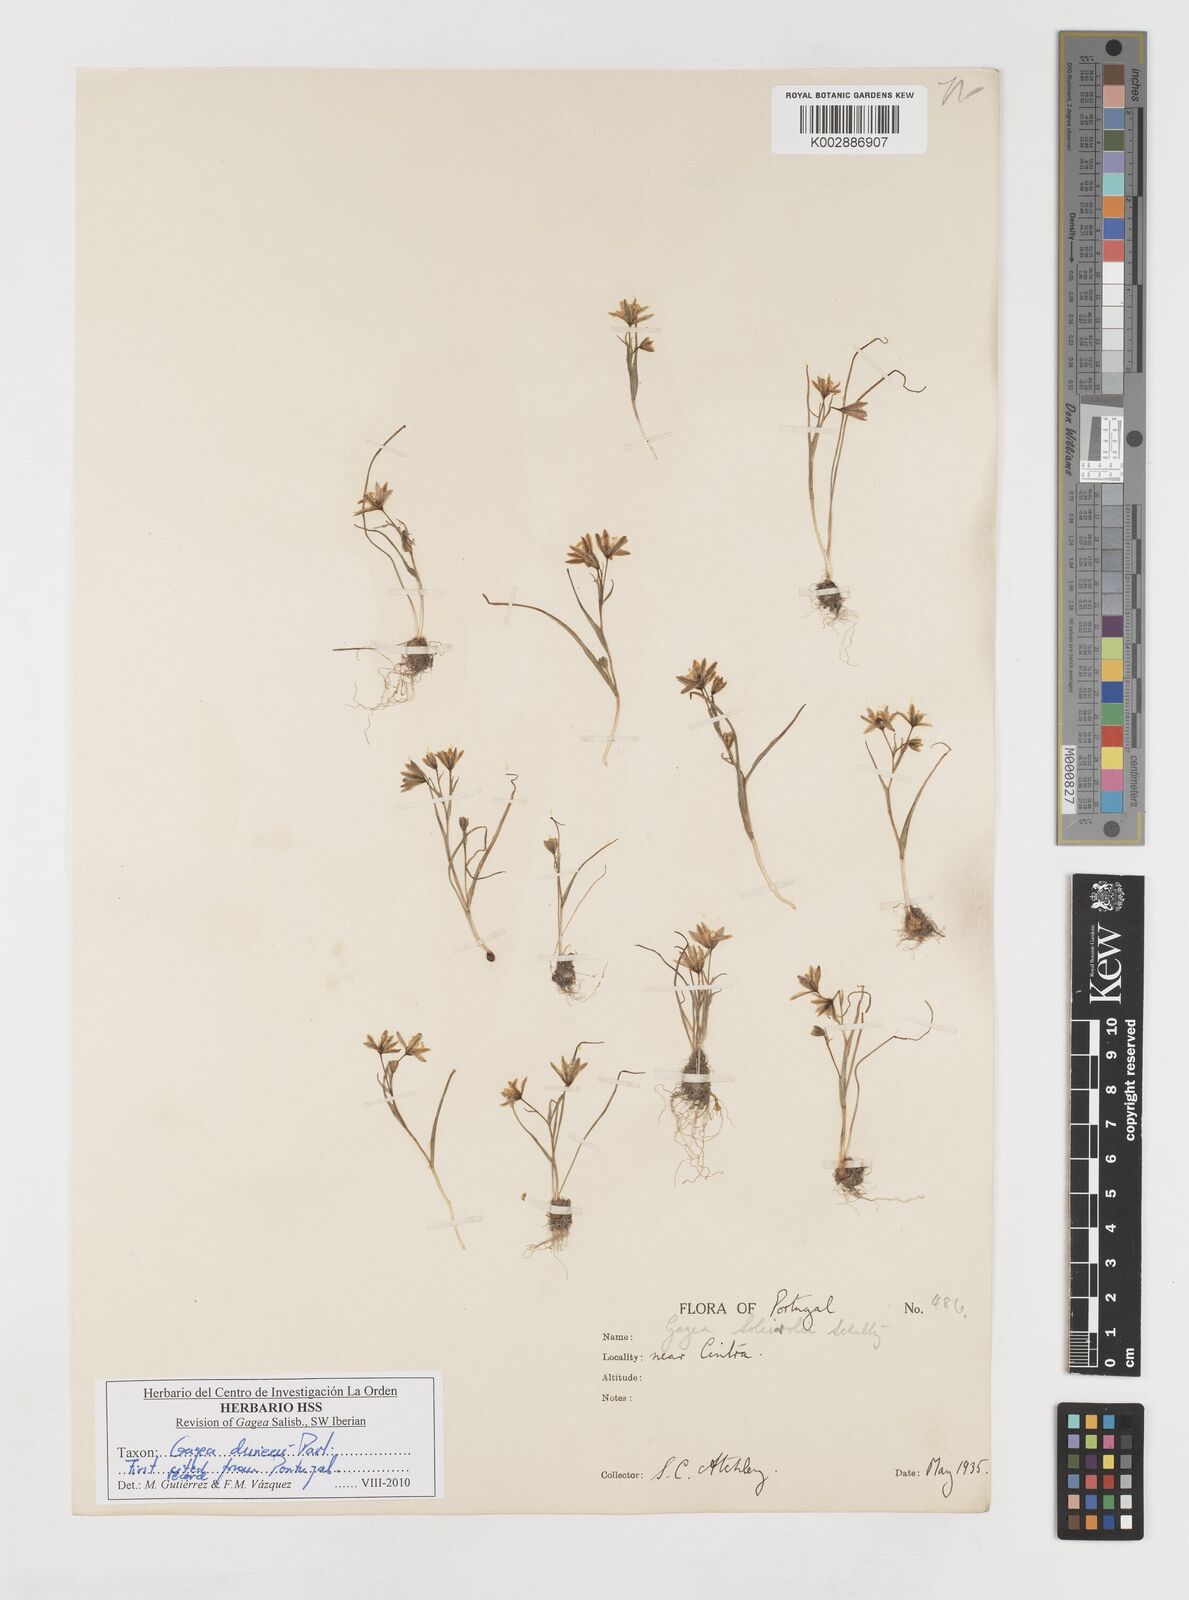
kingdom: Plantae
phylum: Tracheophyta
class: Liliopsida
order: Liliales
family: Liliaceae
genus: Gagea
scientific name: Gagea durieui
